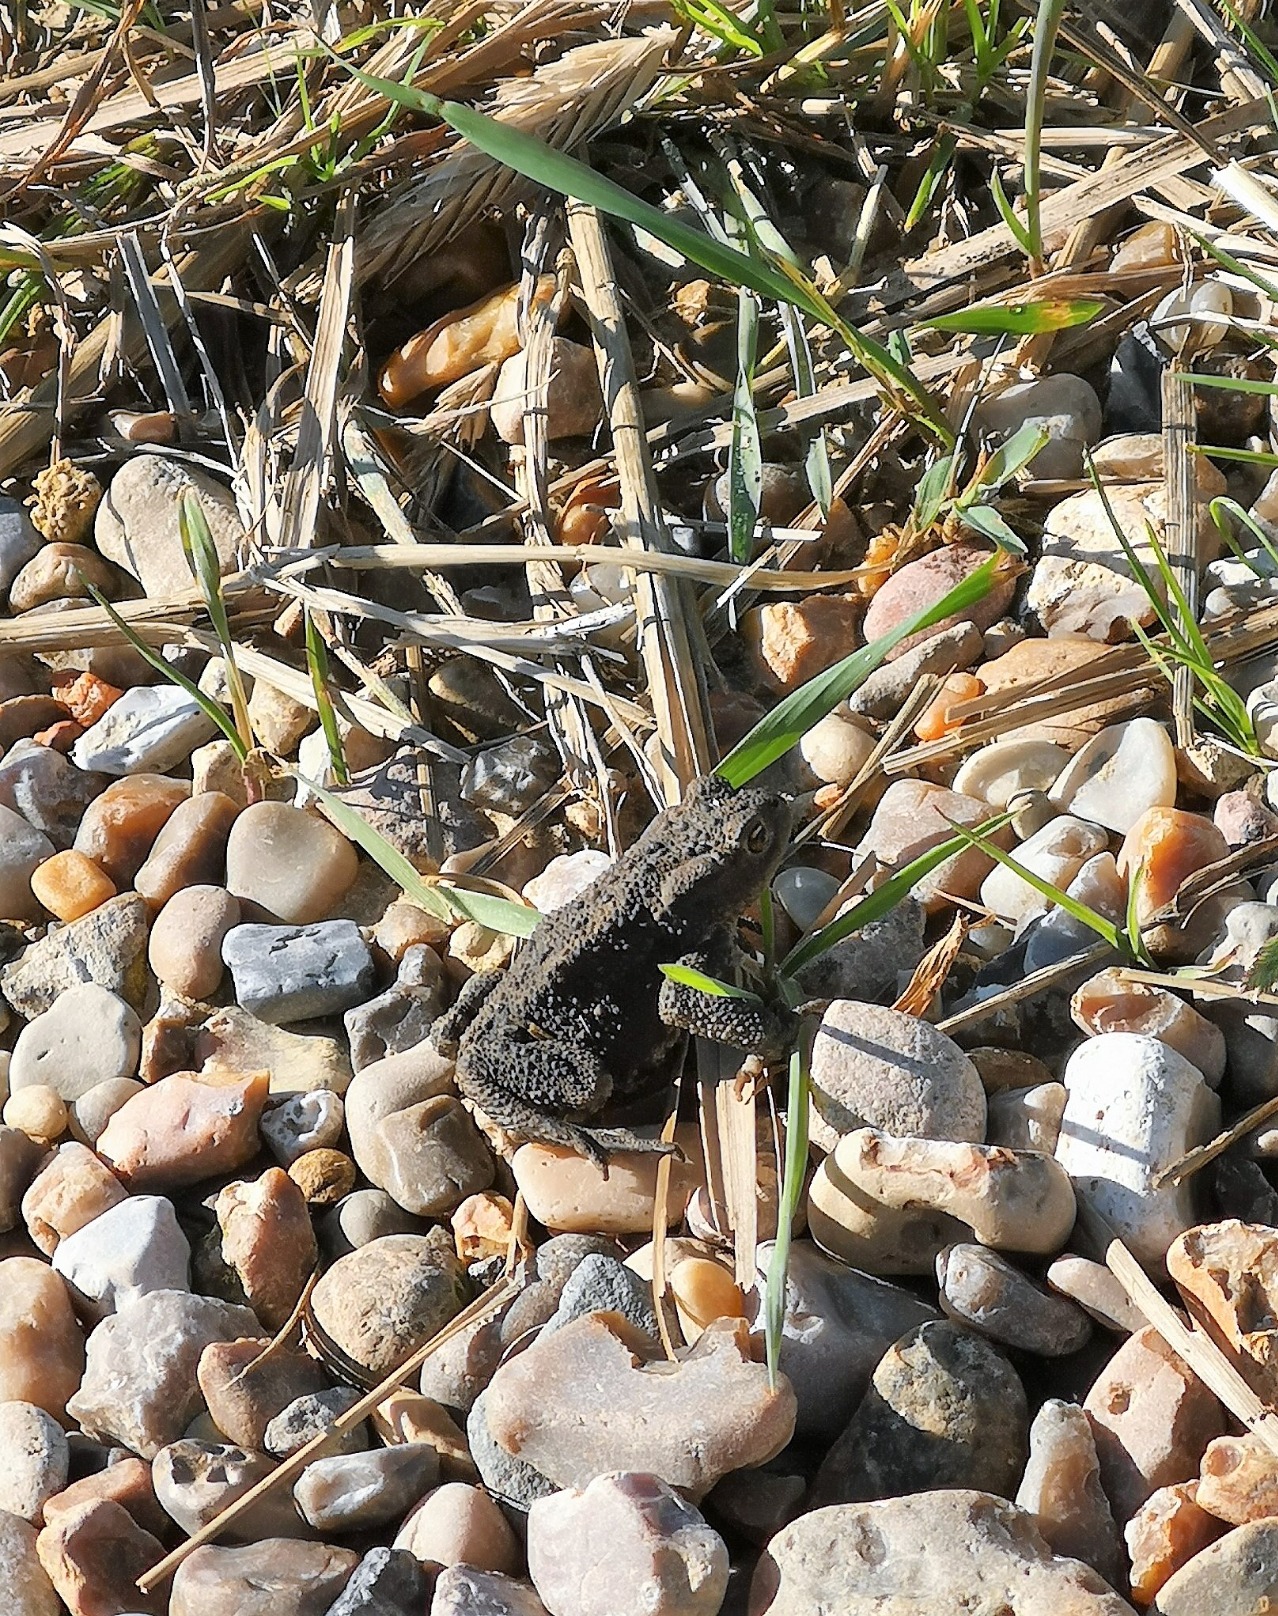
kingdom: Animalia
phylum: Chordata
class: Amphibia
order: Anura
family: Bufonidae
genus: Bufo
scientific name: Bufo bufo
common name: Skrubtudse
